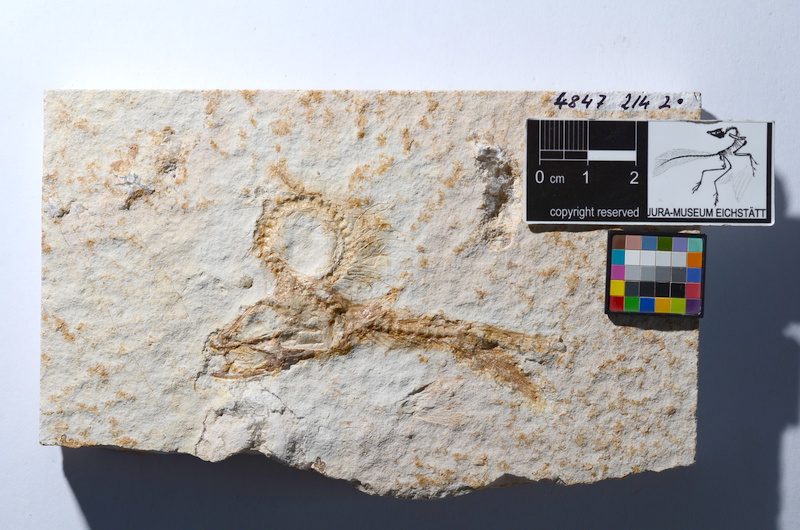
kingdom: Animalia
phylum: Chordata
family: Ascalaboidae
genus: Tharsis
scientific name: Tharsis dubius
